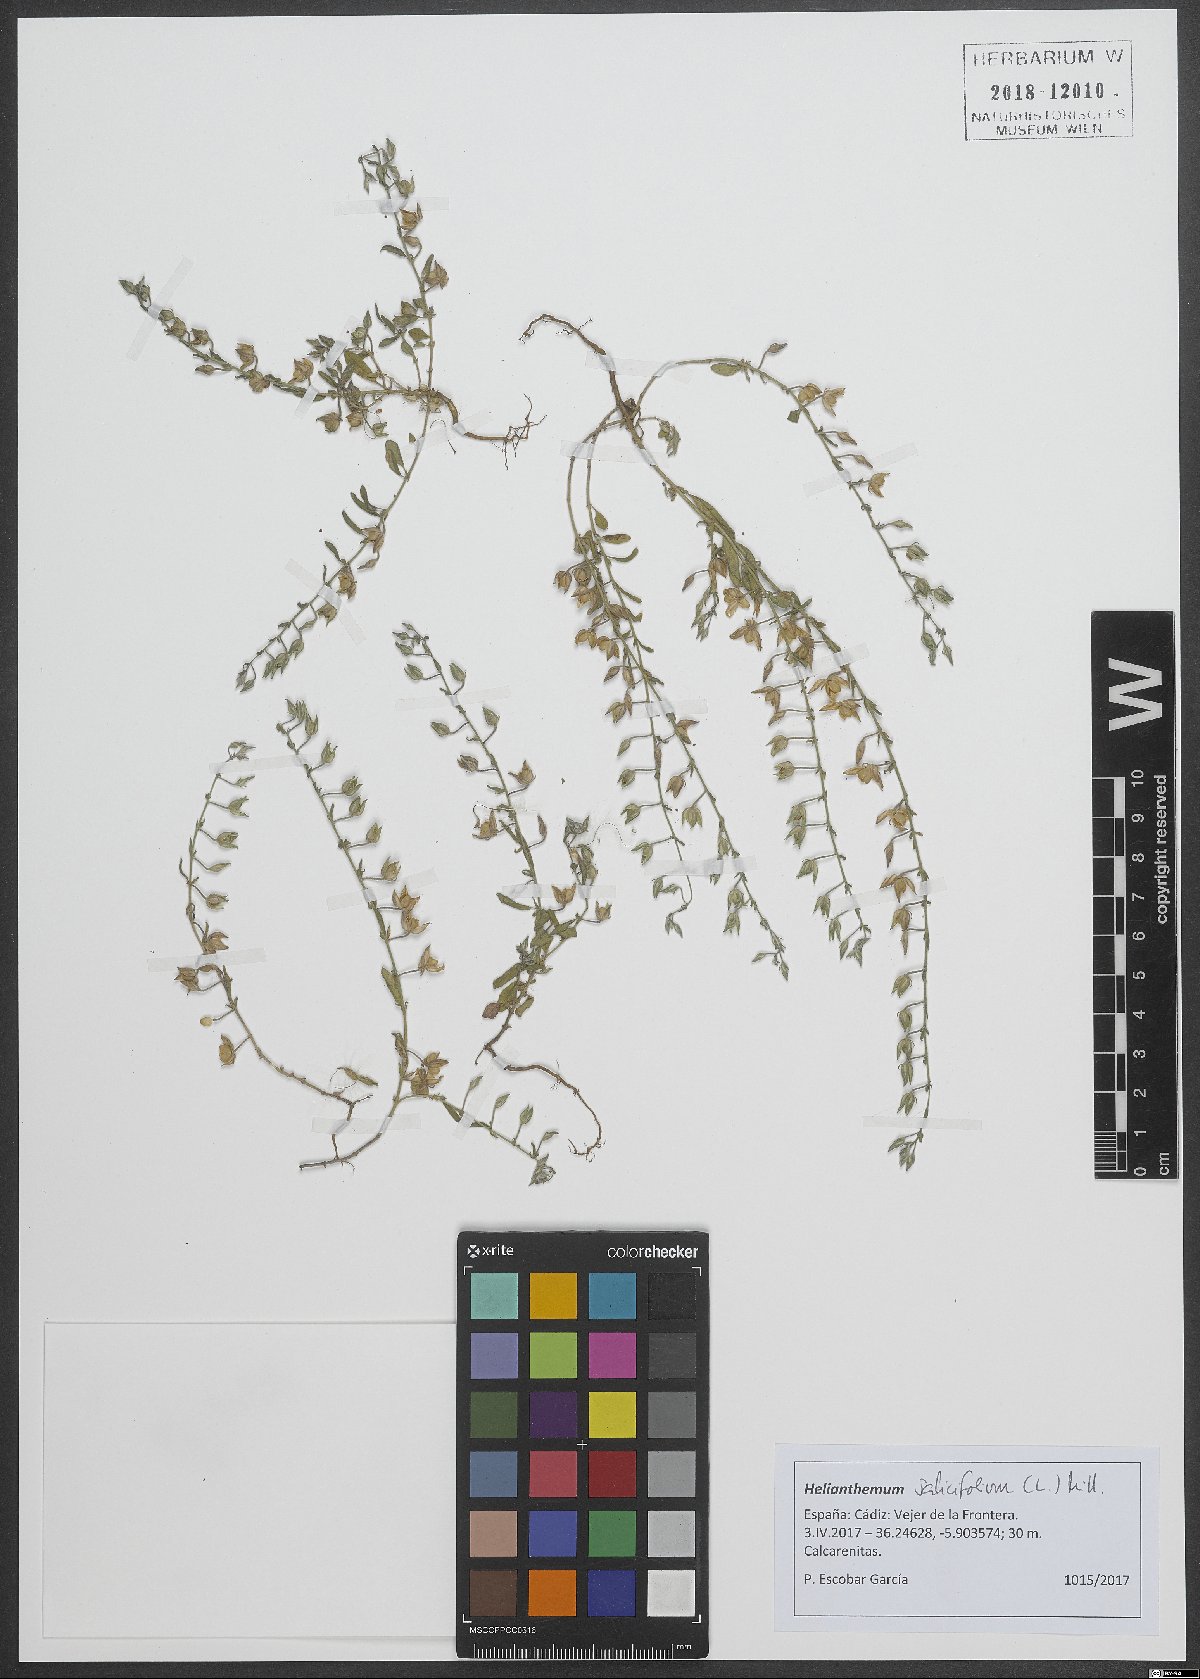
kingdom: Plantae
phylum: Tracheophyta
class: Magnoliopsida
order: Malvales
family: Cistaceae
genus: Helianthemum
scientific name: Helianthemum salicifolium
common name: Willowleaf frostweed
